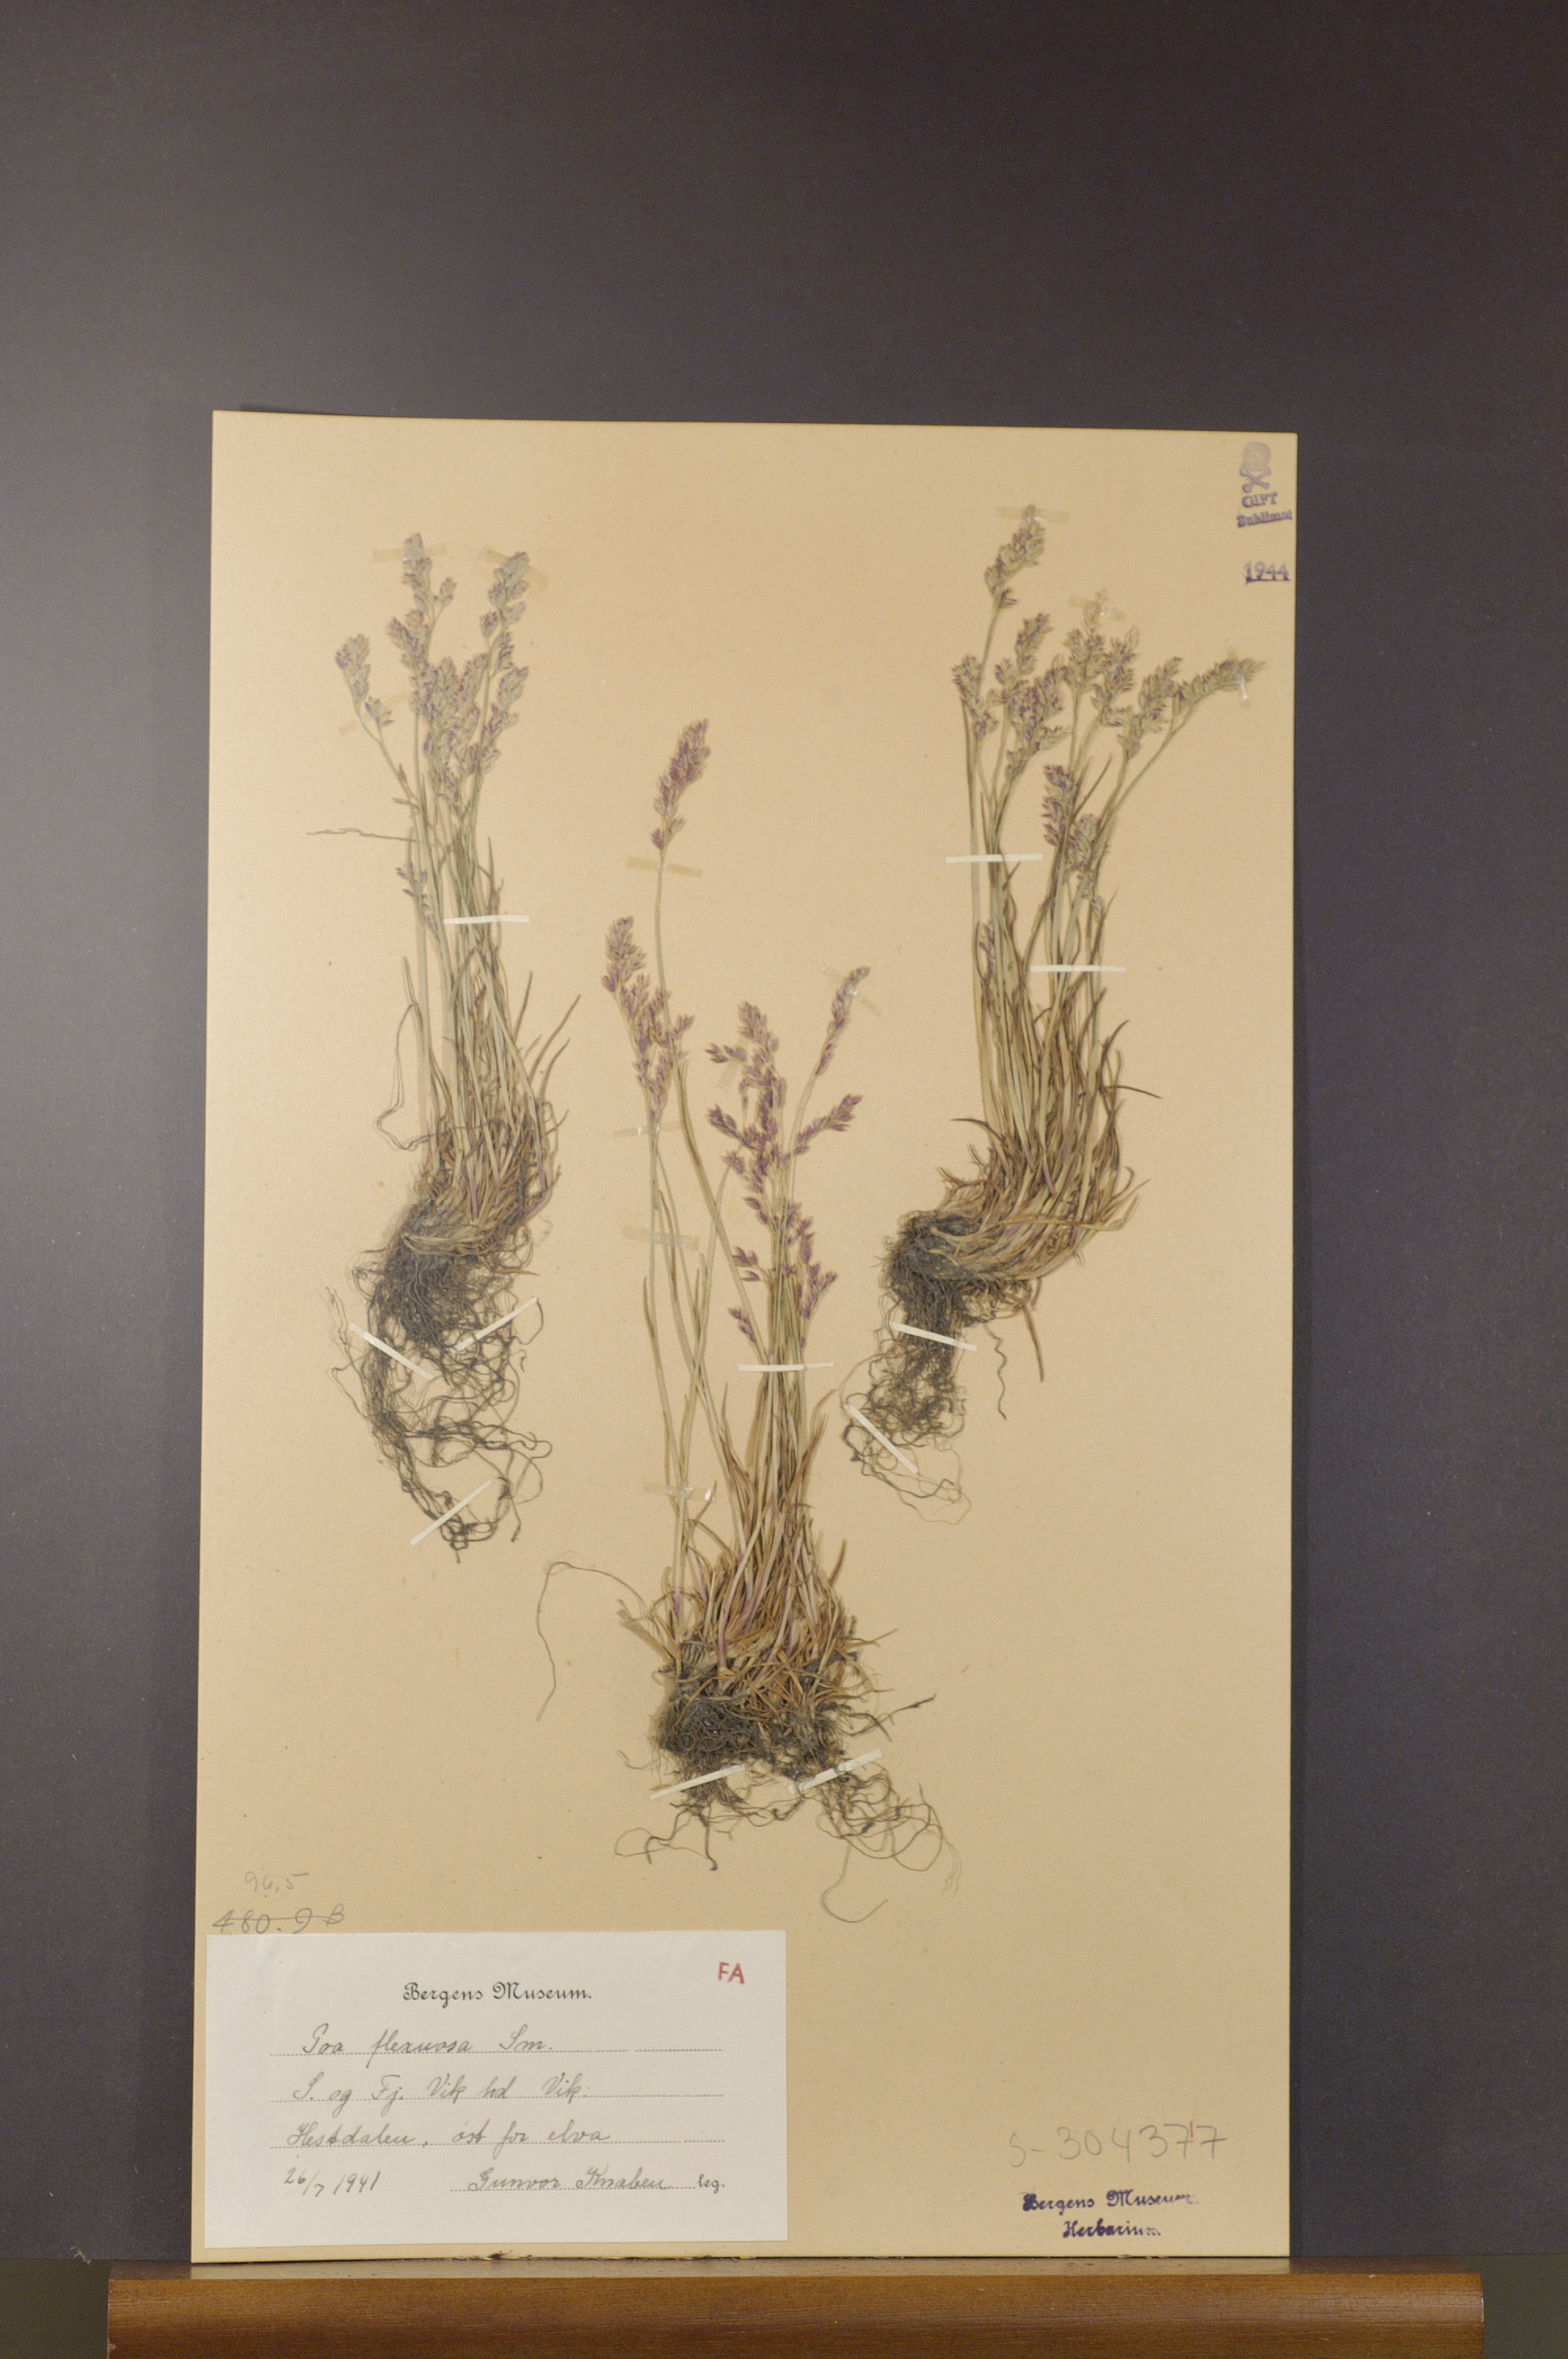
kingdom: Plantae
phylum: Tracheophyta
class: Liliopsida
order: Poales
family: Poaceae
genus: Poa
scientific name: Poa flexuosa
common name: Wavy meadow-grass
